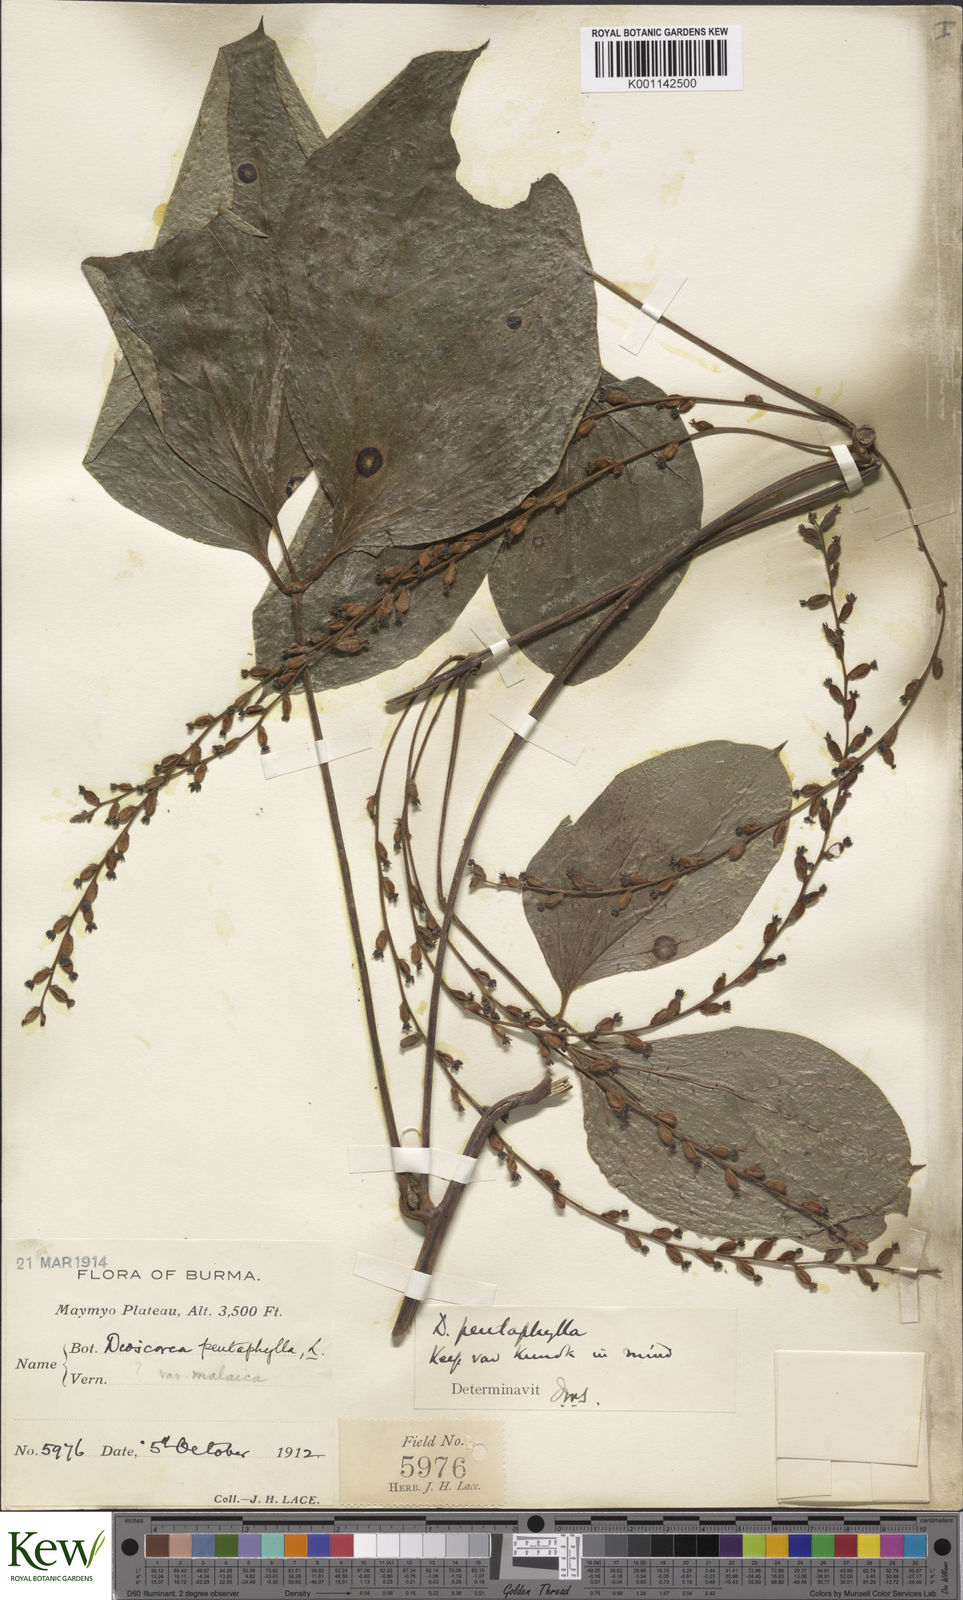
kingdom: Plantae
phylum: Tracheophyta
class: Liliopsida
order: Dioscoreales
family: Dioscoreaceae
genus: Dioscorea
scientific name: Dioscorea pentaphylla
